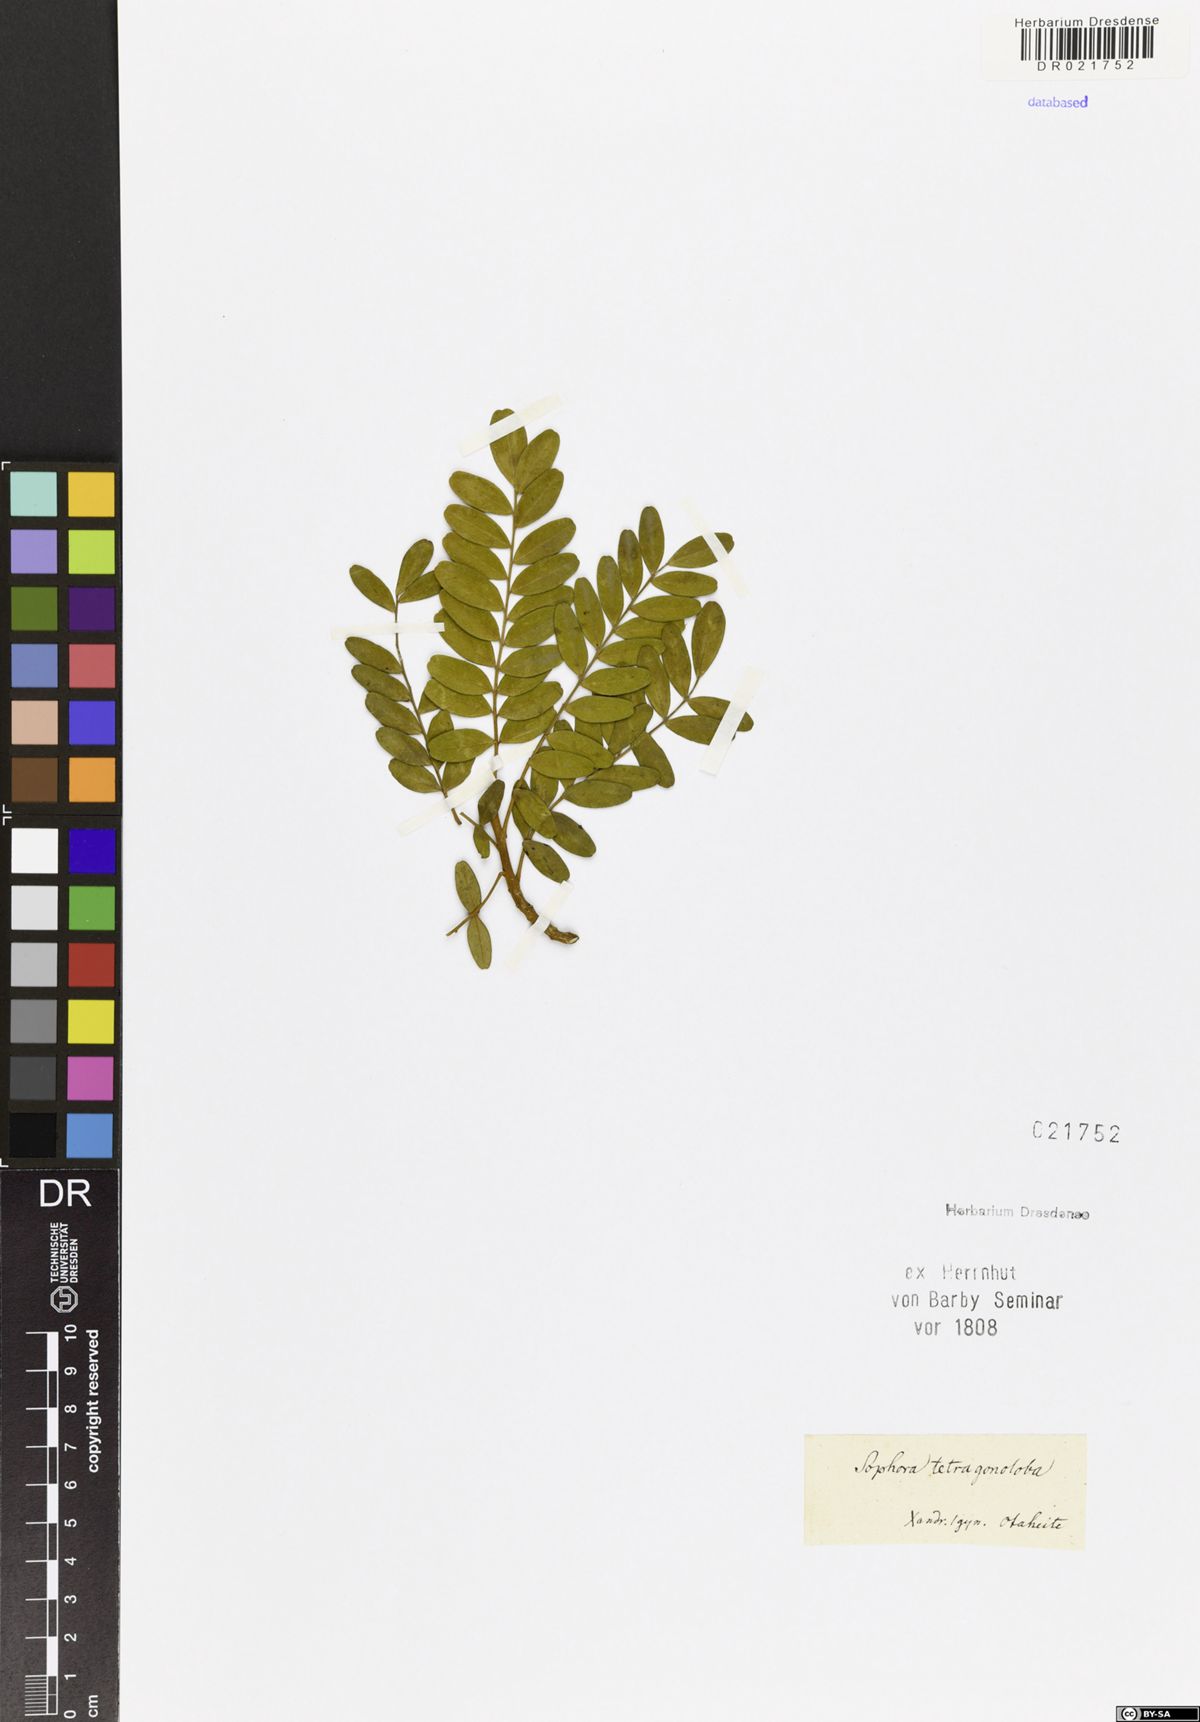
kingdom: Plantae
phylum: Tracheophyta
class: Magnoliopsida
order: Fabales
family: Fabaceae
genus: Sophora
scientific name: Sophora tetraptera
